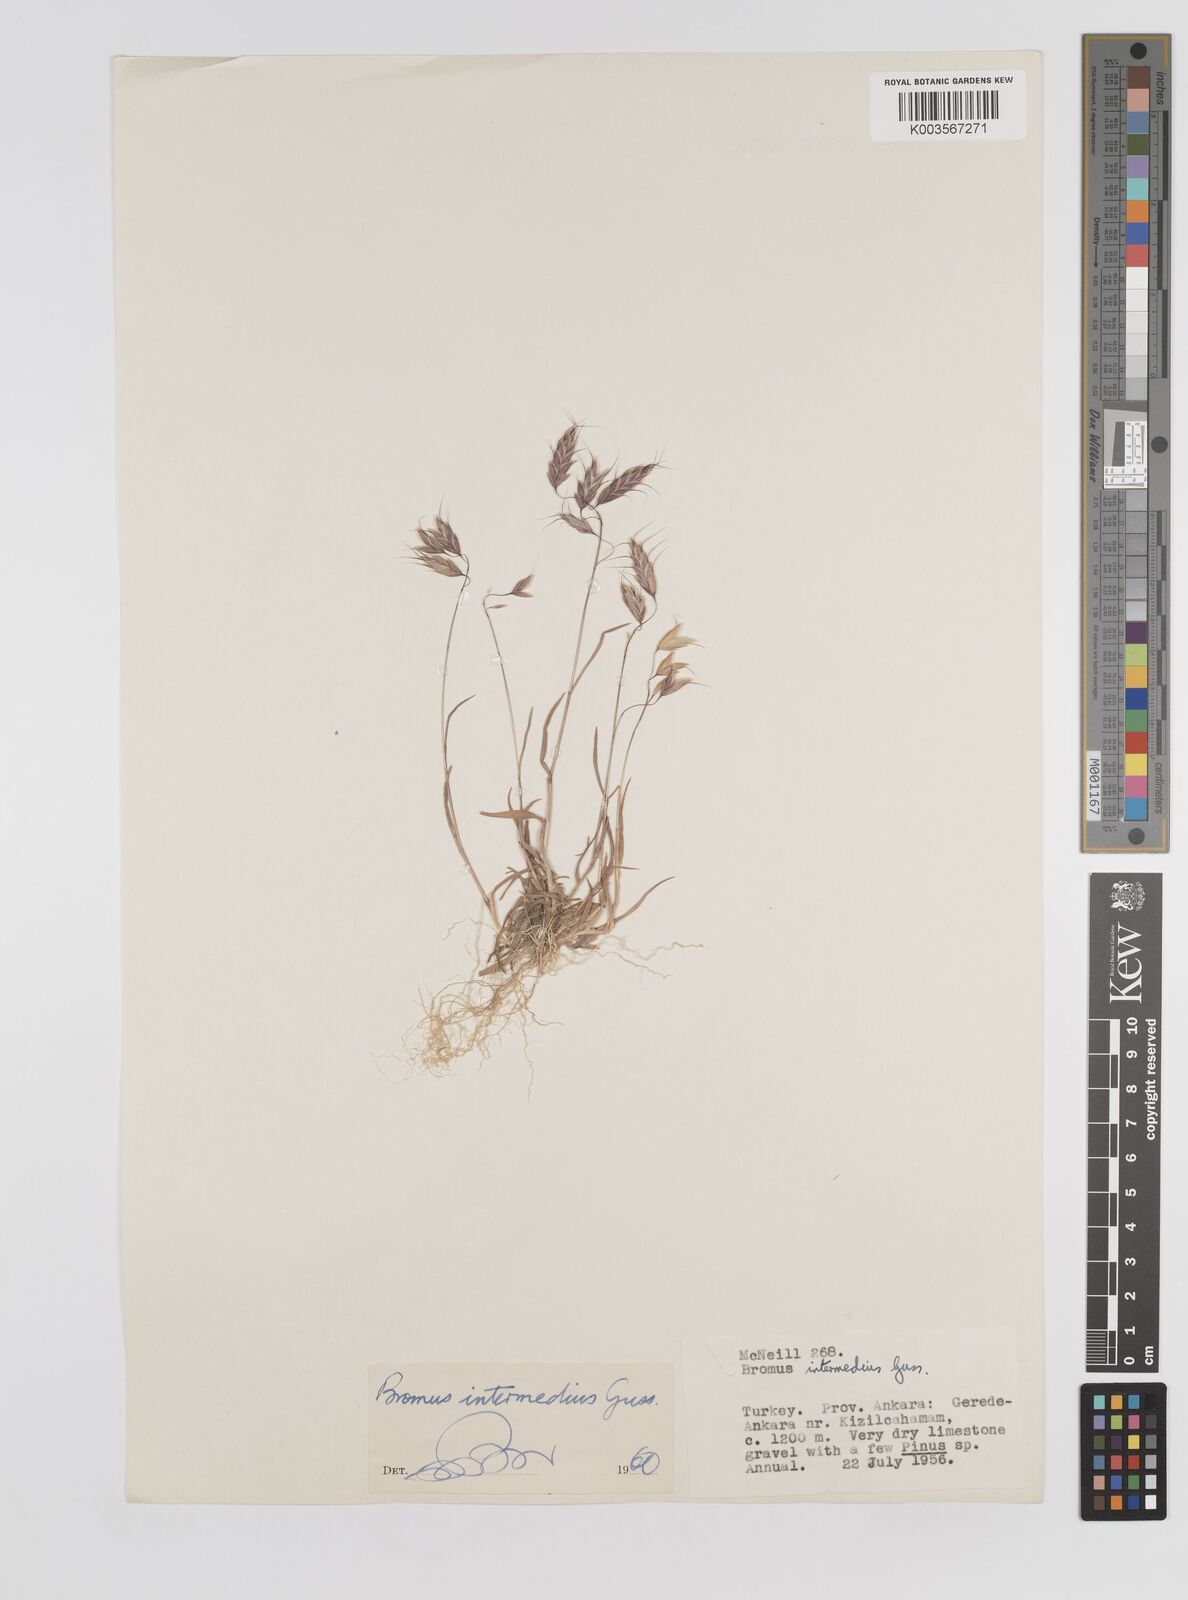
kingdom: Plantae
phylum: Tracheophyta
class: Liliopsida
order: Poales
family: Poaceae
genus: Bromus
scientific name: Bromus intermedius
